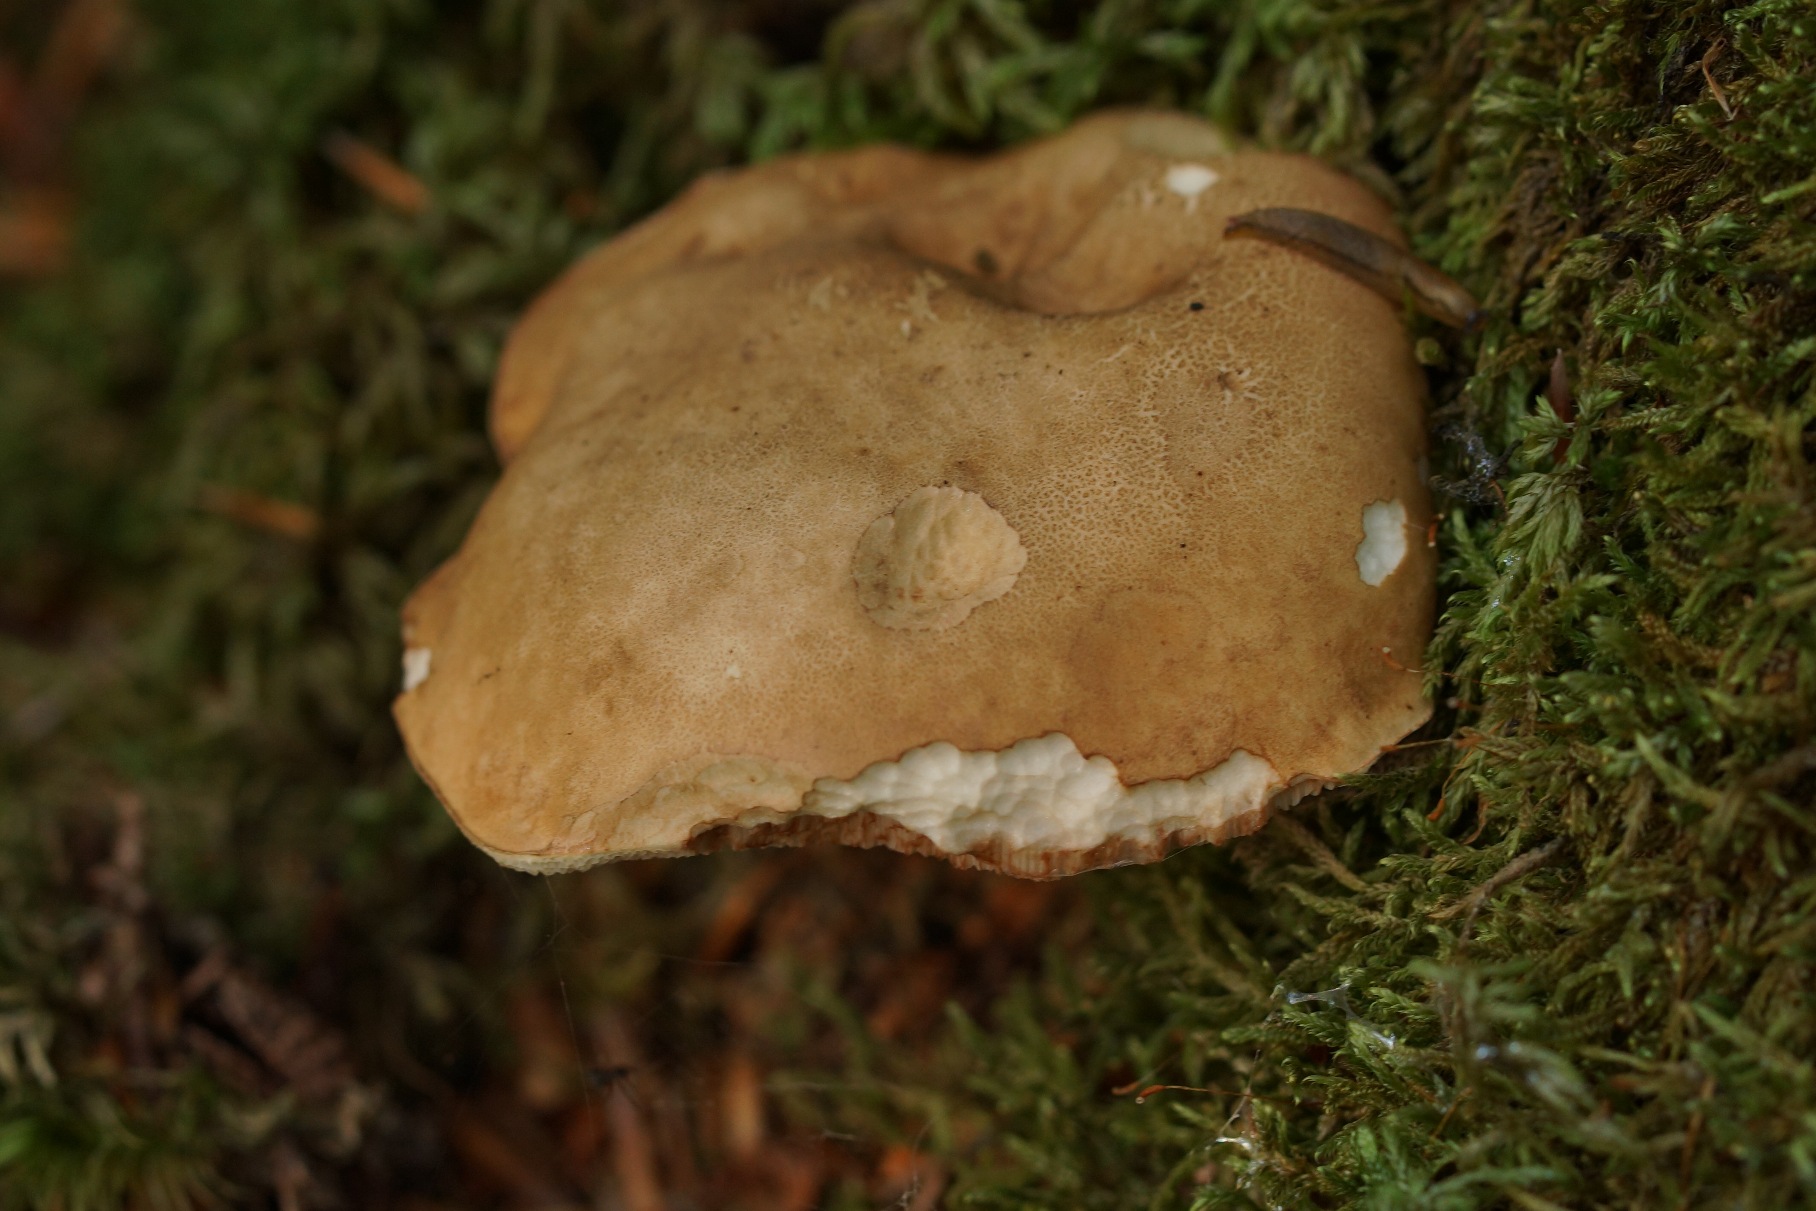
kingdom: Fungi
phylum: Basidiomycota
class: Agaricomycetes
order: Boletales
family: Boletaceae
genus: Tylopilus
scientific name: Tylopilus felleus
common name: Galderørhat
